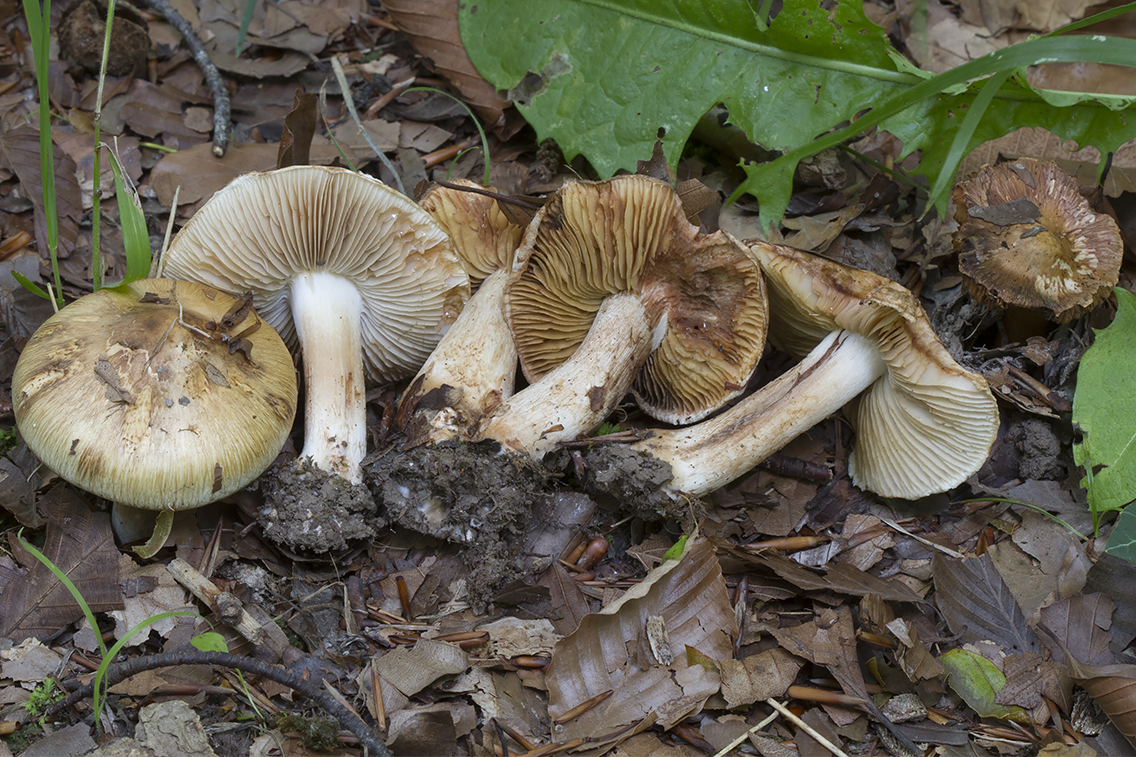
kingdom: Fungi
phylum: Basidiomycota
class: Agaricomycetes
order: Agaricales
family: Inocybaceae
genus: Inocybe
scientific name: Inocybe incarnata
